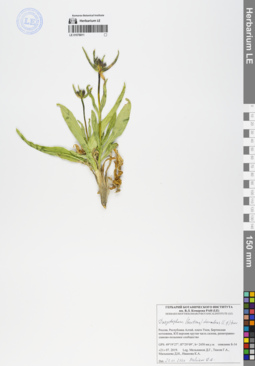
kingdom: Plantae
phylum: Tracheophyta
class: Magnoliopsida
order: Gentianales
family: Gentianaceae
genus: Gentiana
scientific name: Gentiana decumbens
